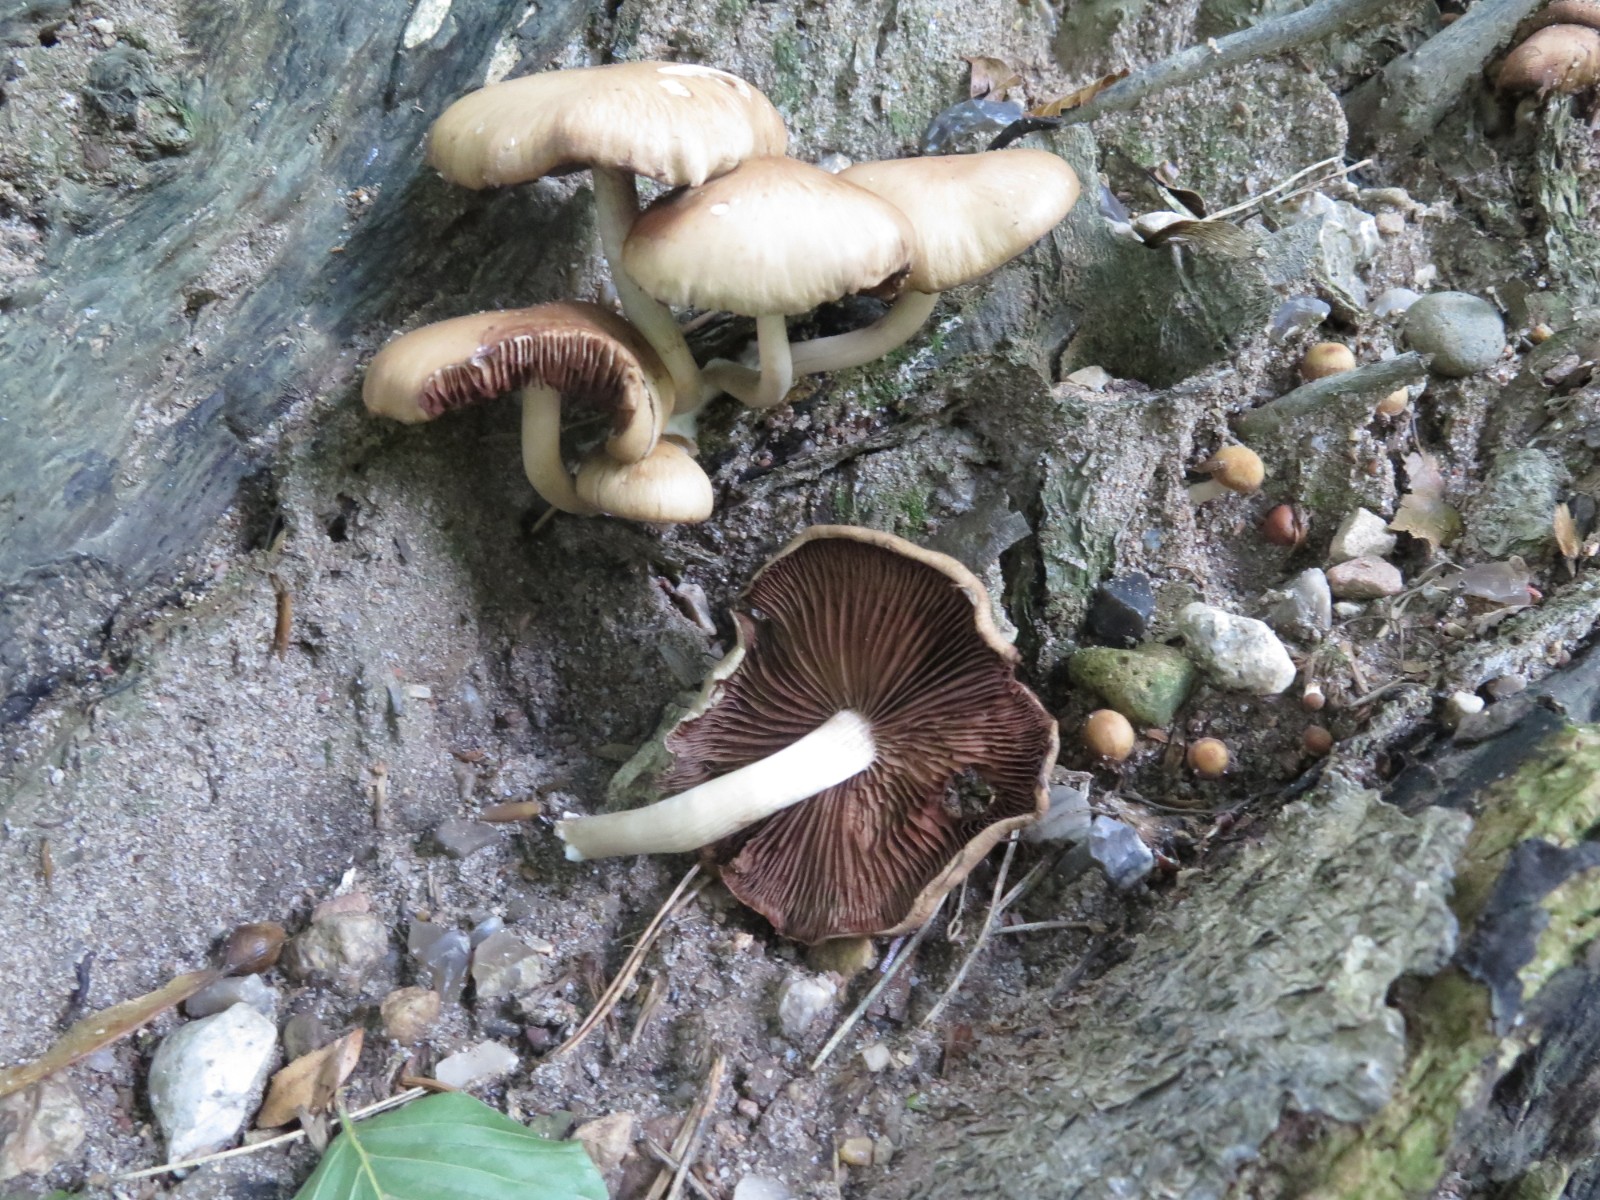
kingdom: Fungi
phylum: Basidiomycota
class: Agaricomycetes
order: Agaricales
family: Psathyrellaceae
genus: Psathyrella
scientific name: Psathyrella piluliformis
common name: lysstokket mørkhat
